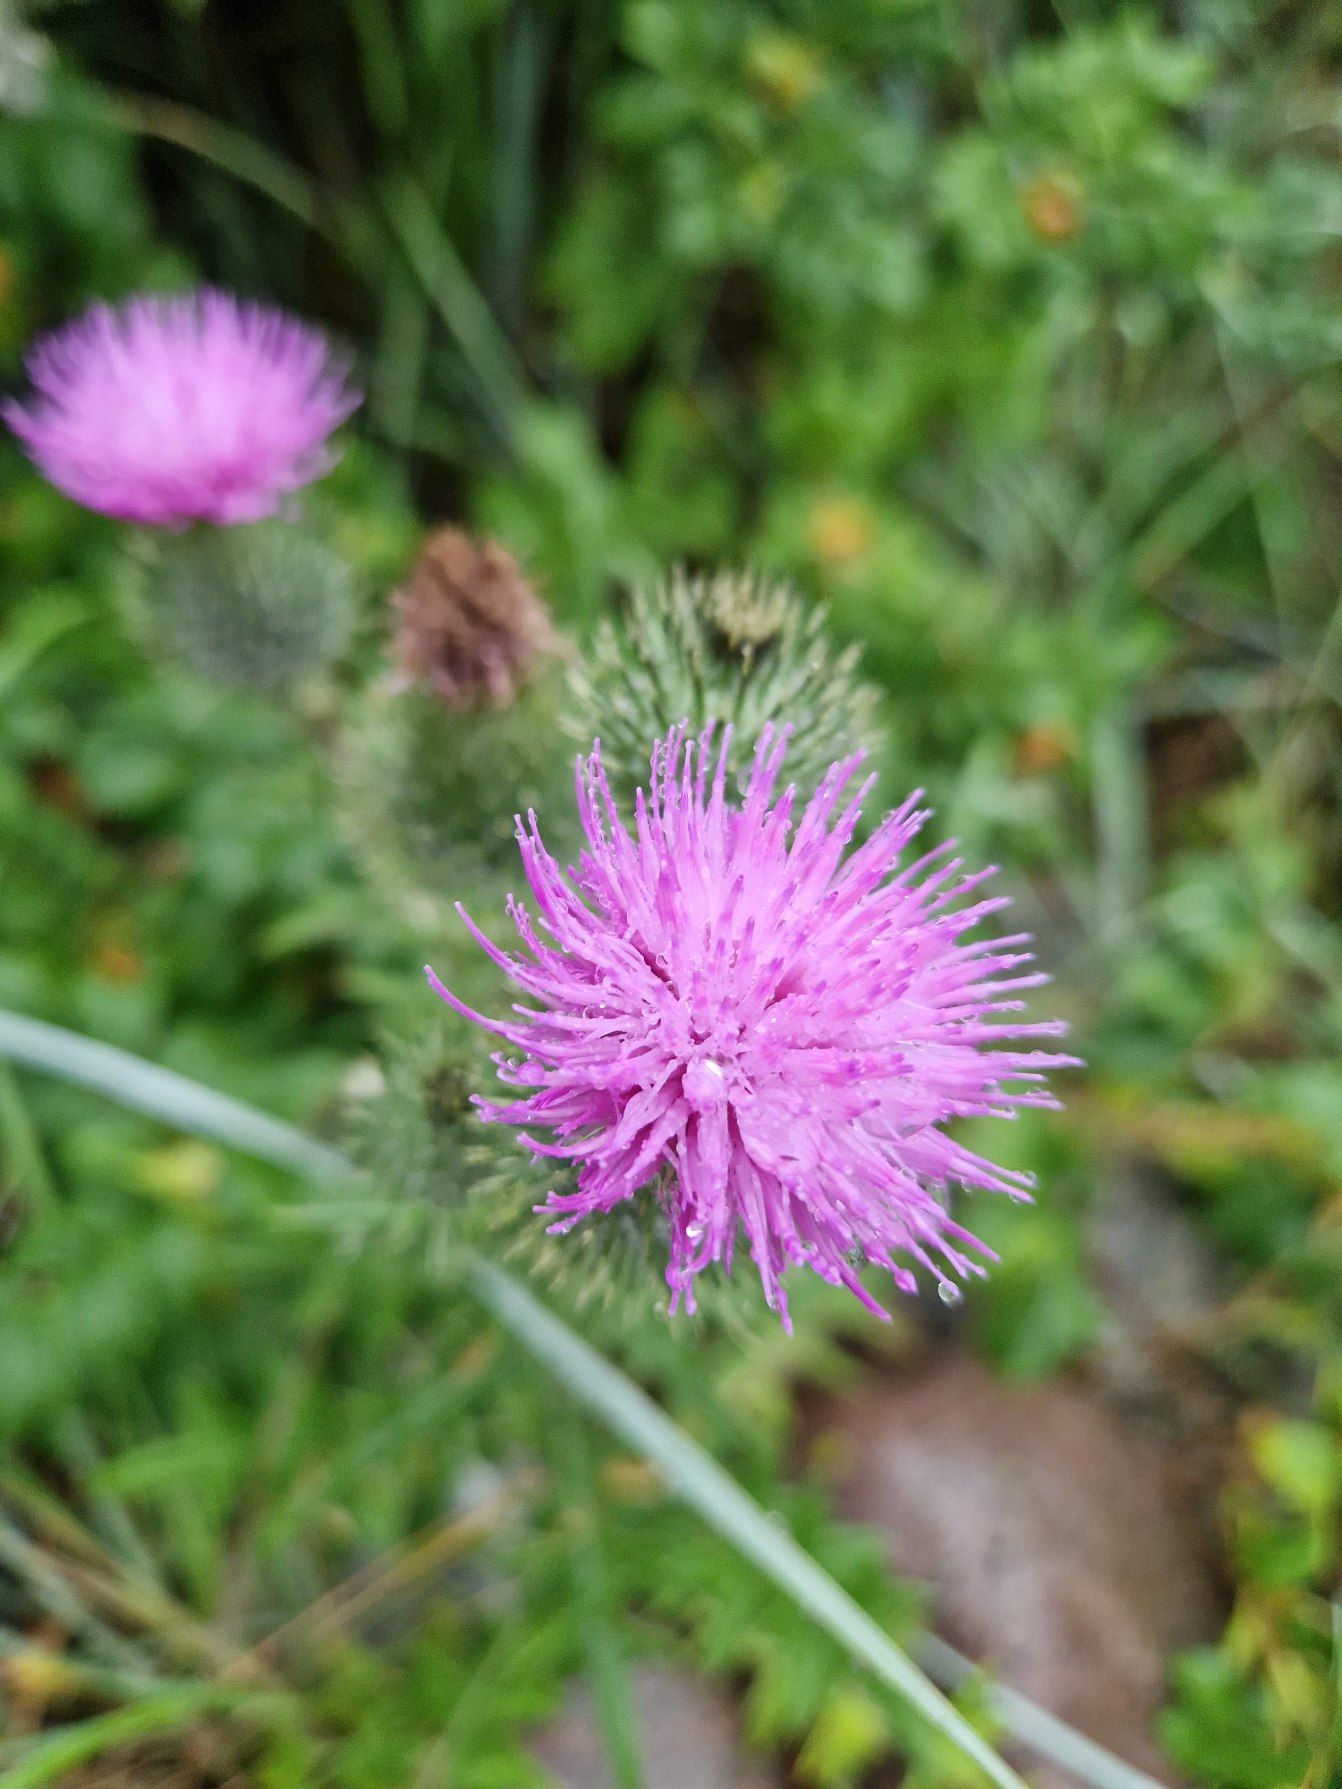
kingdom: Plantae
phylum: Tracheophyta
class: Magnoliopsida
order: Asterales
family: Asteraceae
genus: Cirsium
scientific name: Cirsium vulgare
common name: Horse-tidsel
